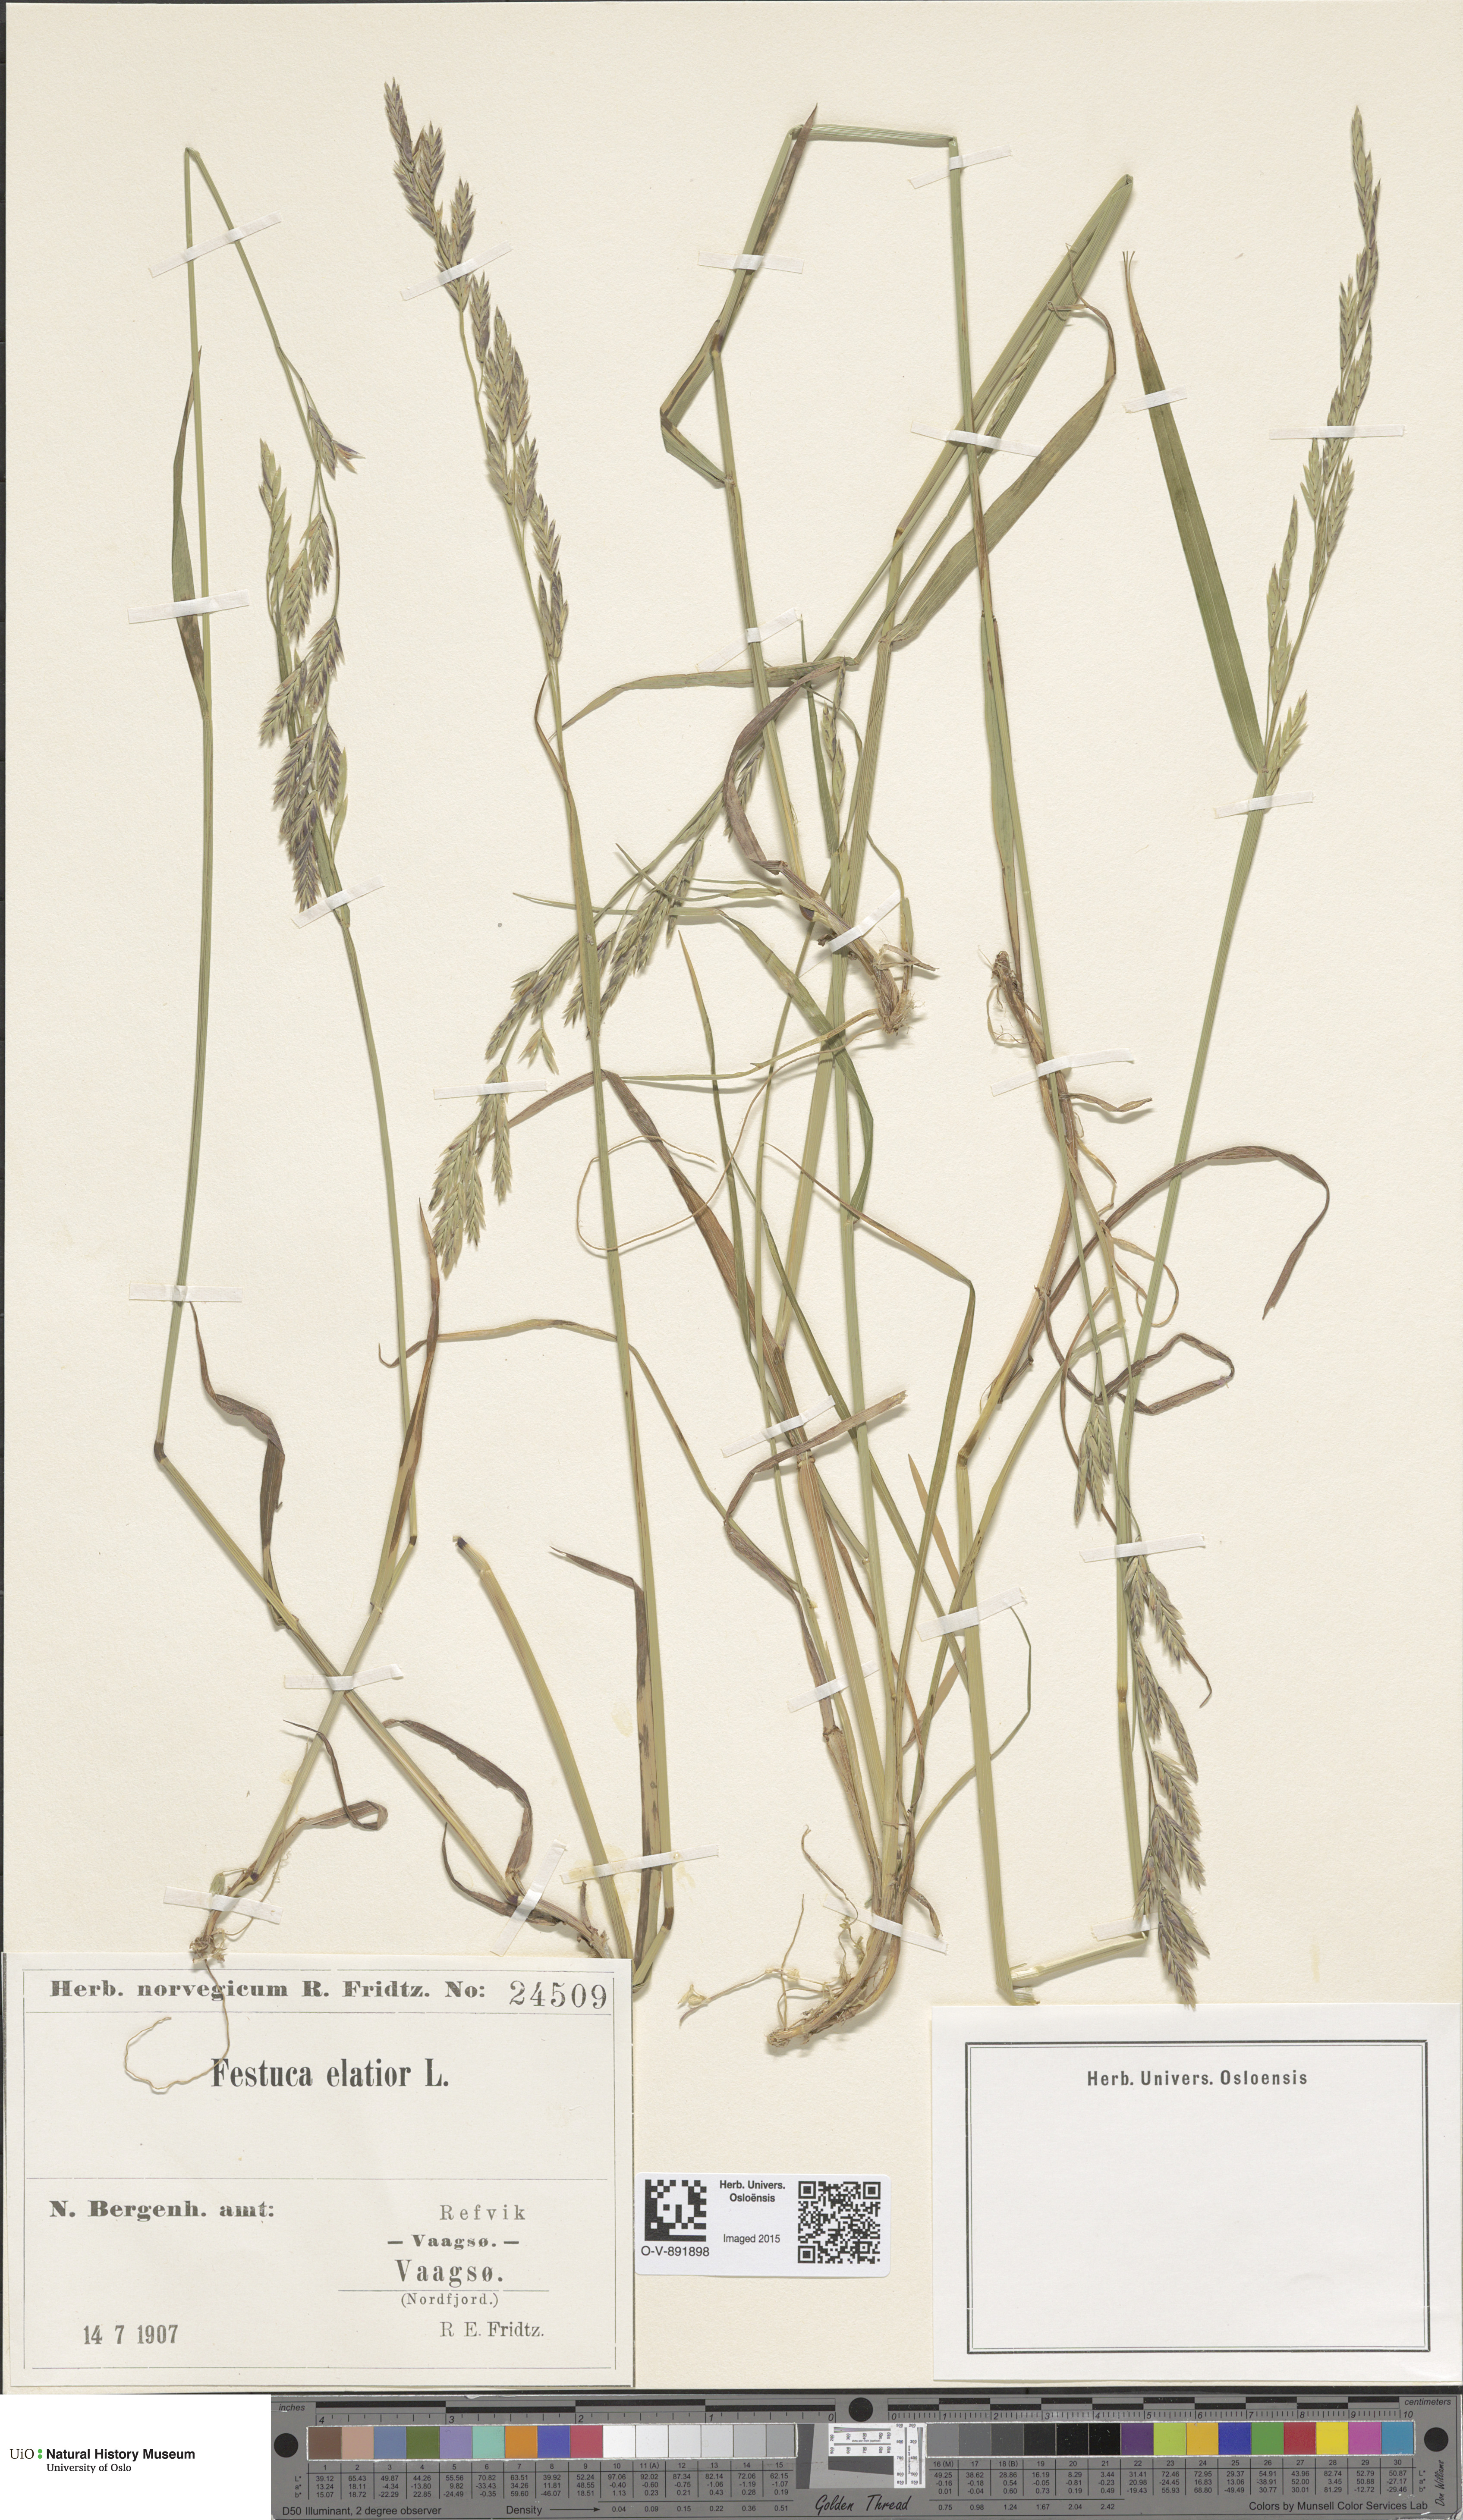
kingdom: Plantae
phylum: Tracheophyta
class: Liliopsida
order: Poales
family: Poaceae
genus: Lolium
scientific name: Lolium arundinaceum
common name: Reed fescue
